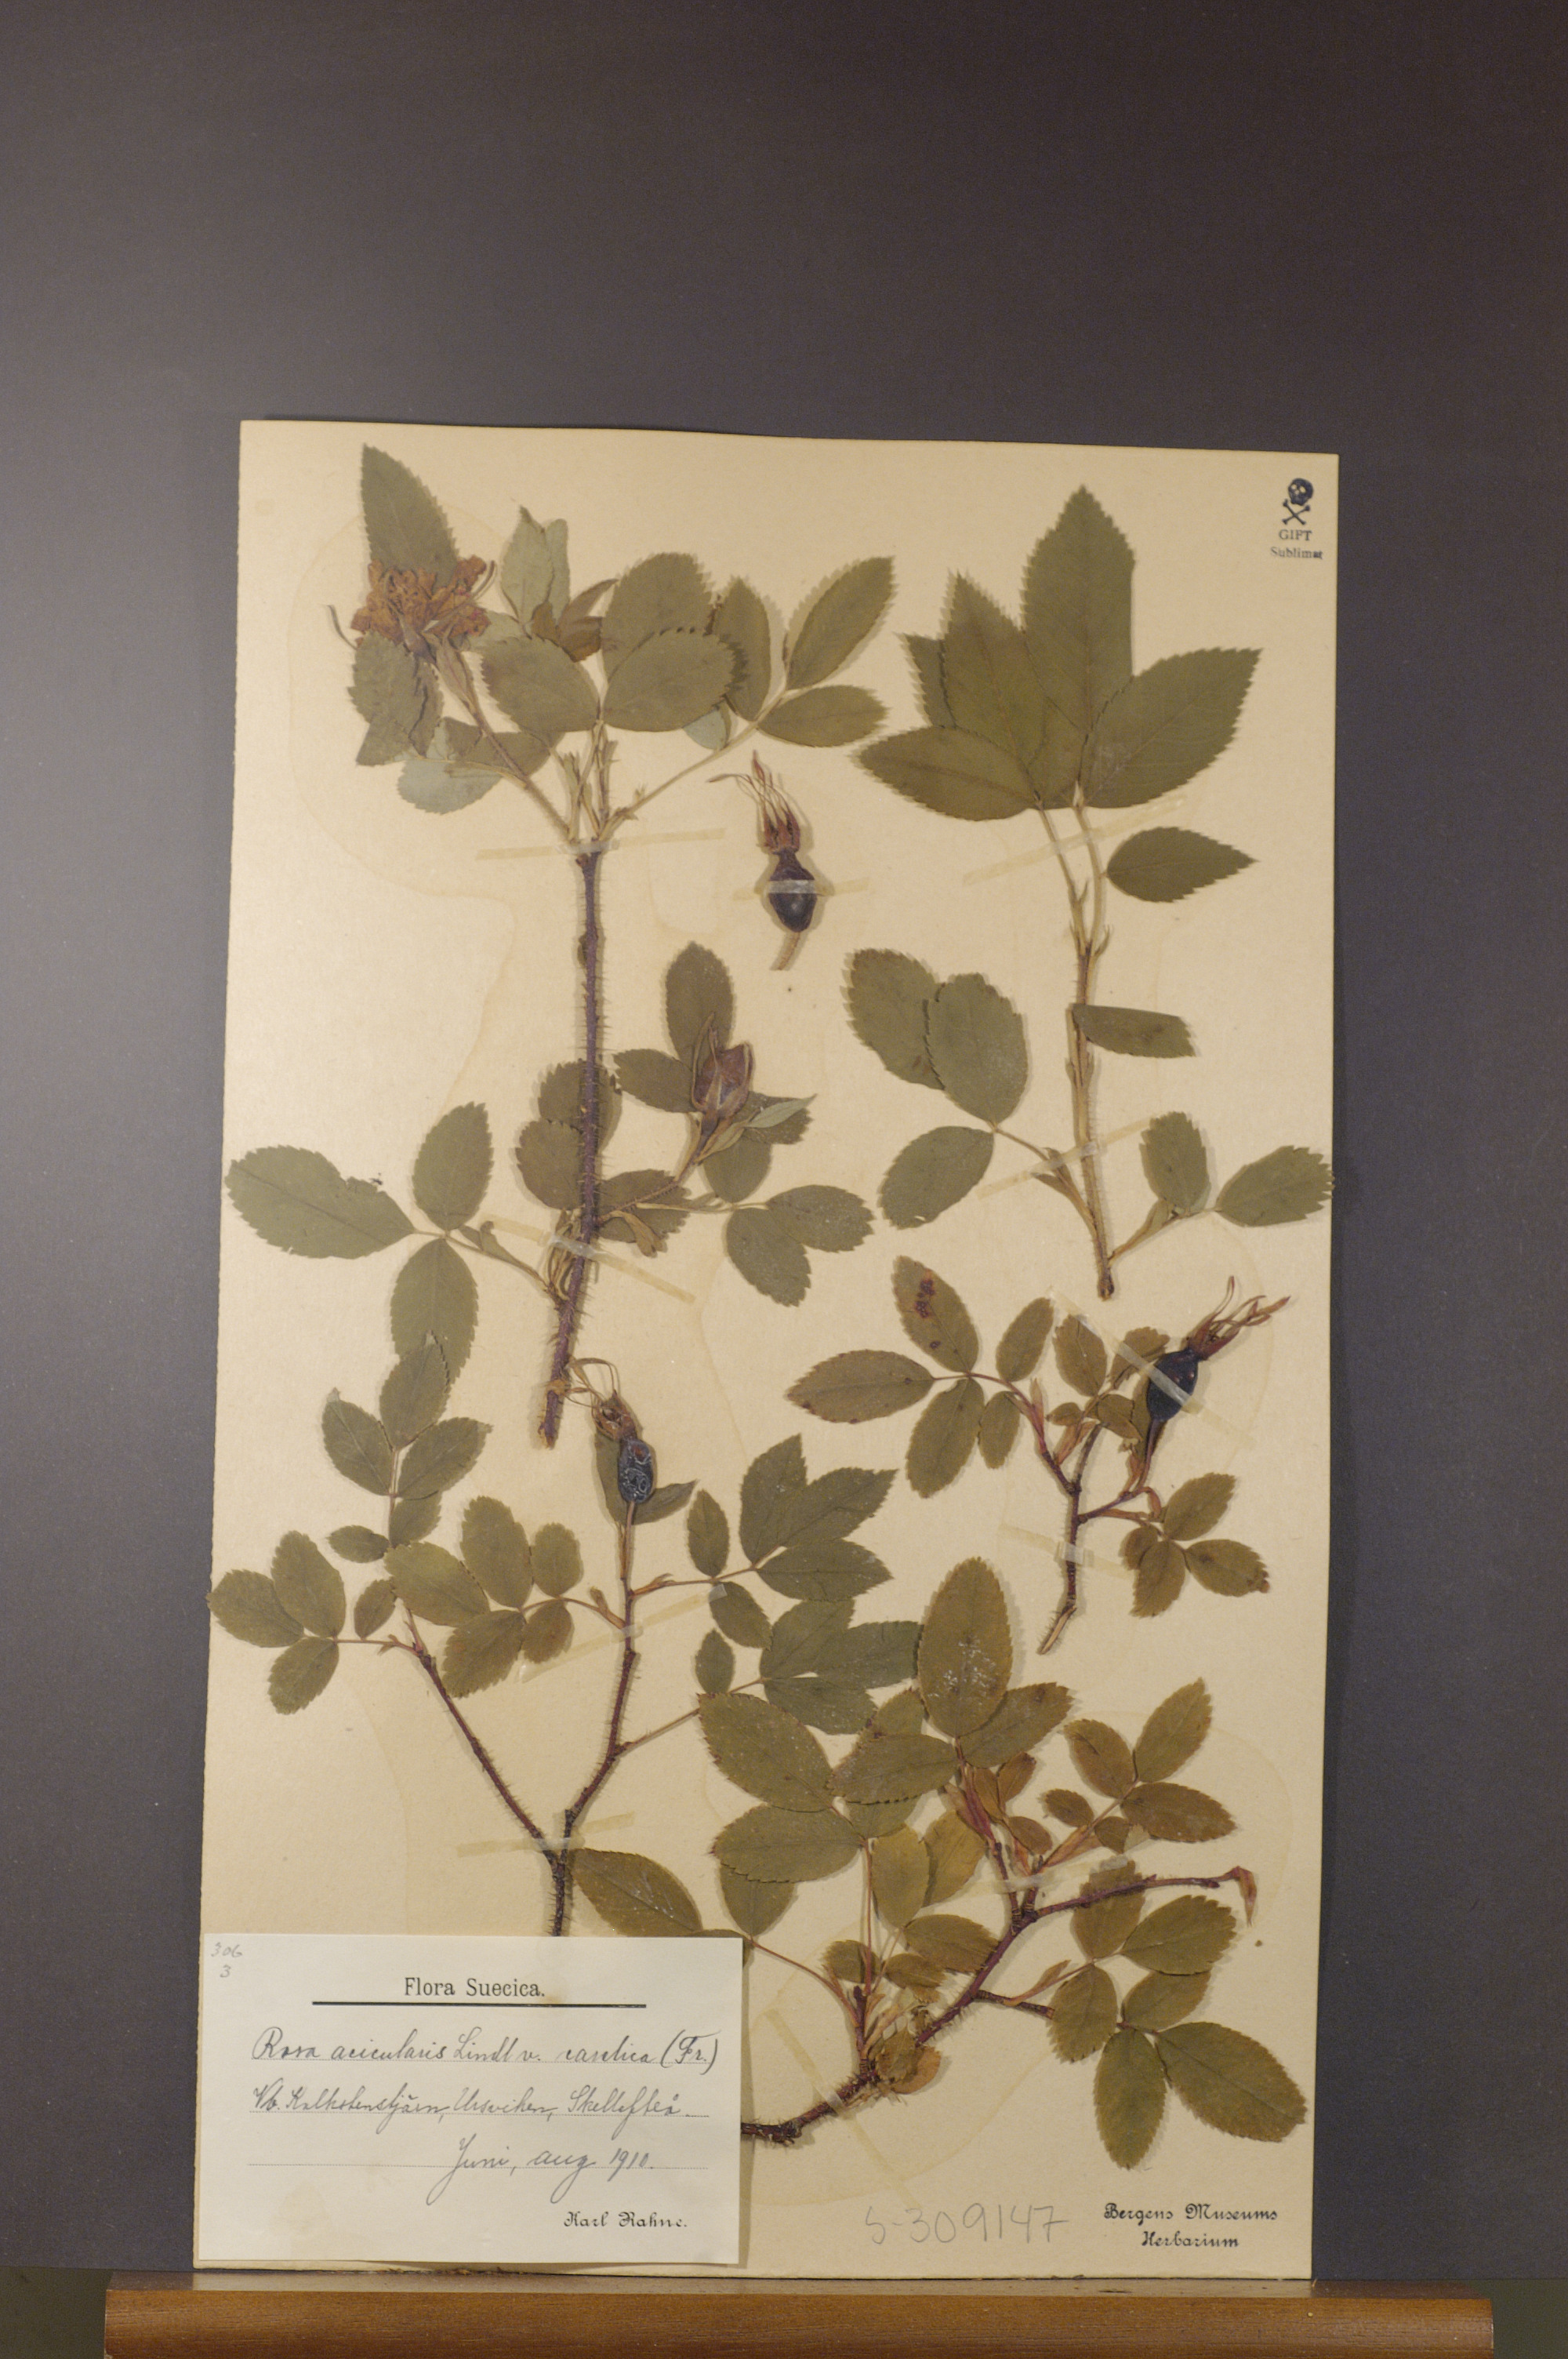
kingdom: Plantae
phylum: Tracheophyta
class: Magnoliopsida
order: Rosales
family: Rosaceae
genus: Rosa
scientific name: Rosa acicularis
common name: Prickly rose
